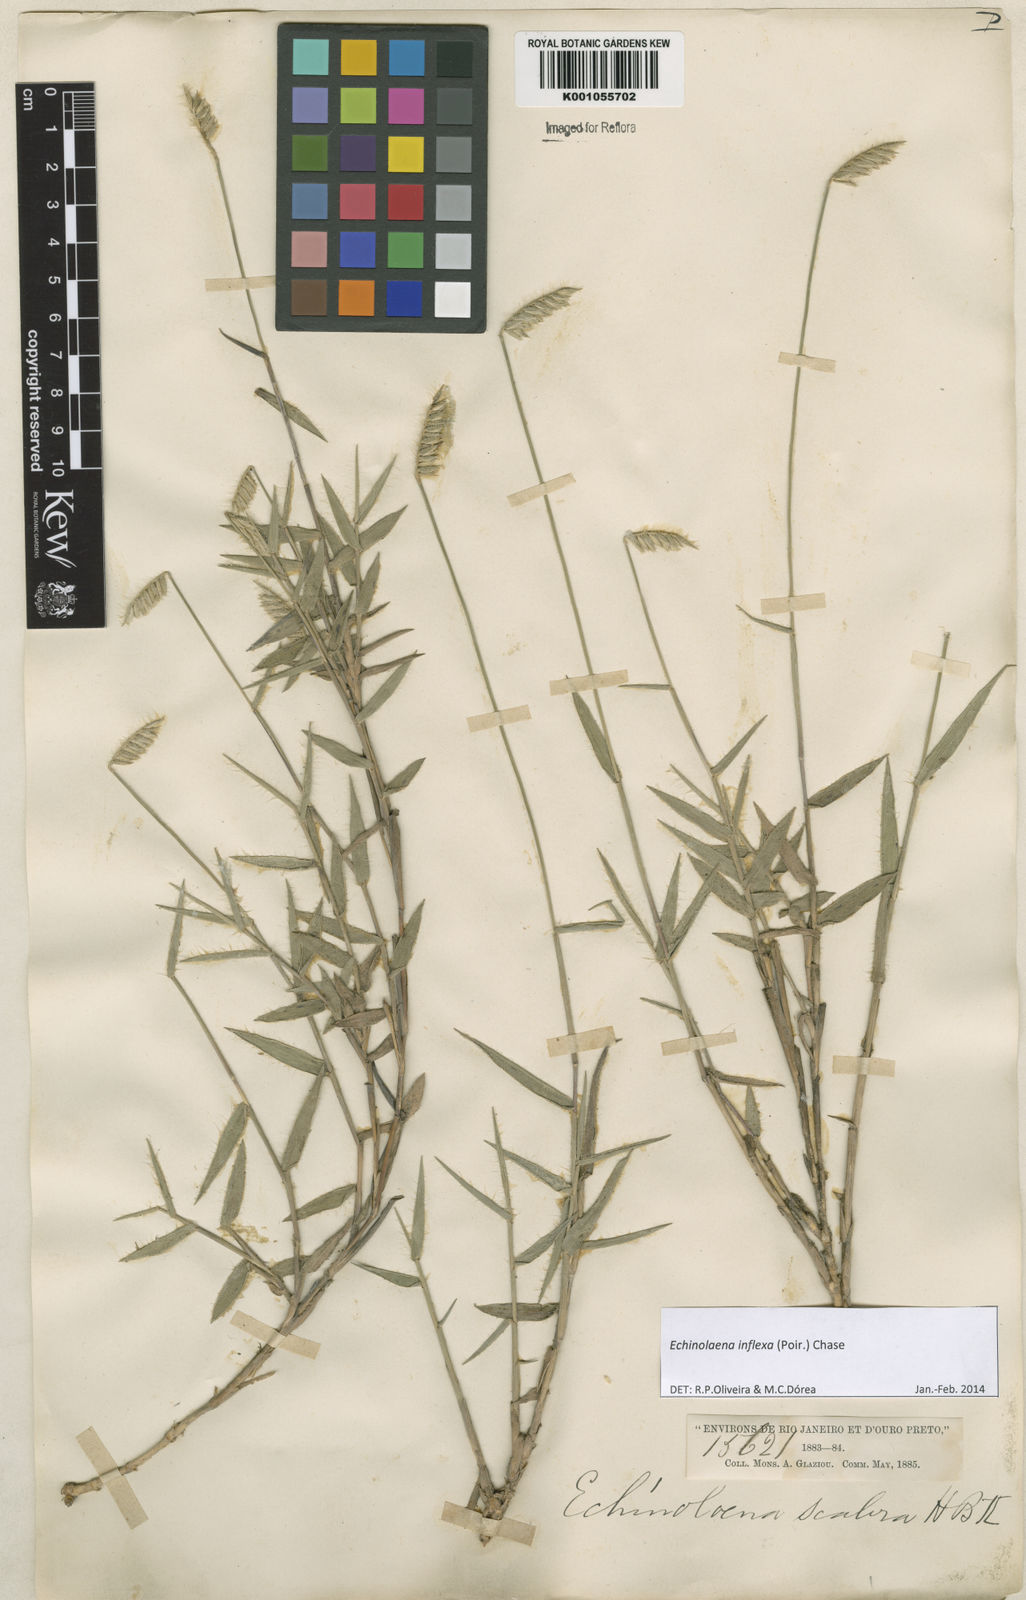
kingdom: Plantae
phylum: Tracheophyta
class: Liliopsida
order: Poales
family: Poaceae
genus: Echinolaena
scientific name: Echinolaena inflexa
